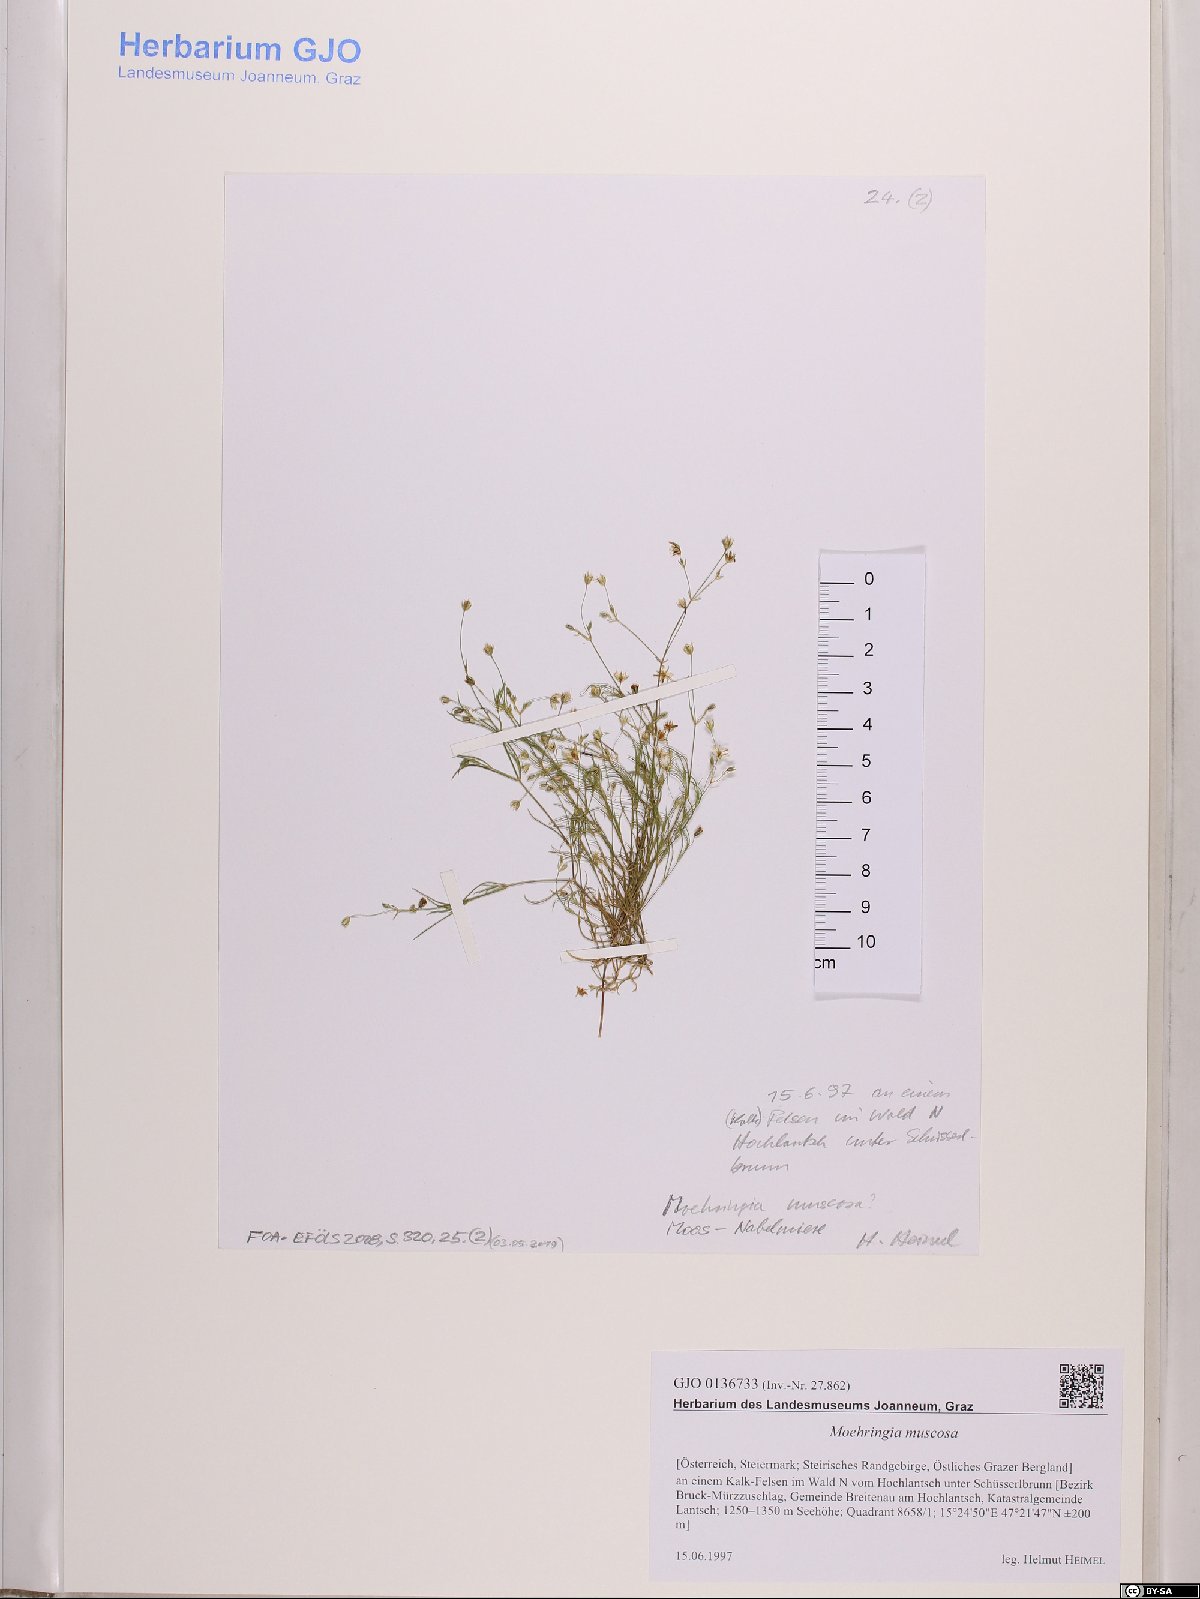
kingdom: Plantae
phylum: Tracheophyta
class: Magnoliopsida
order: Caryophyllales
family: Caryophyllaceae
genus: Moehringia
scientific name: Moehringia muscosa
